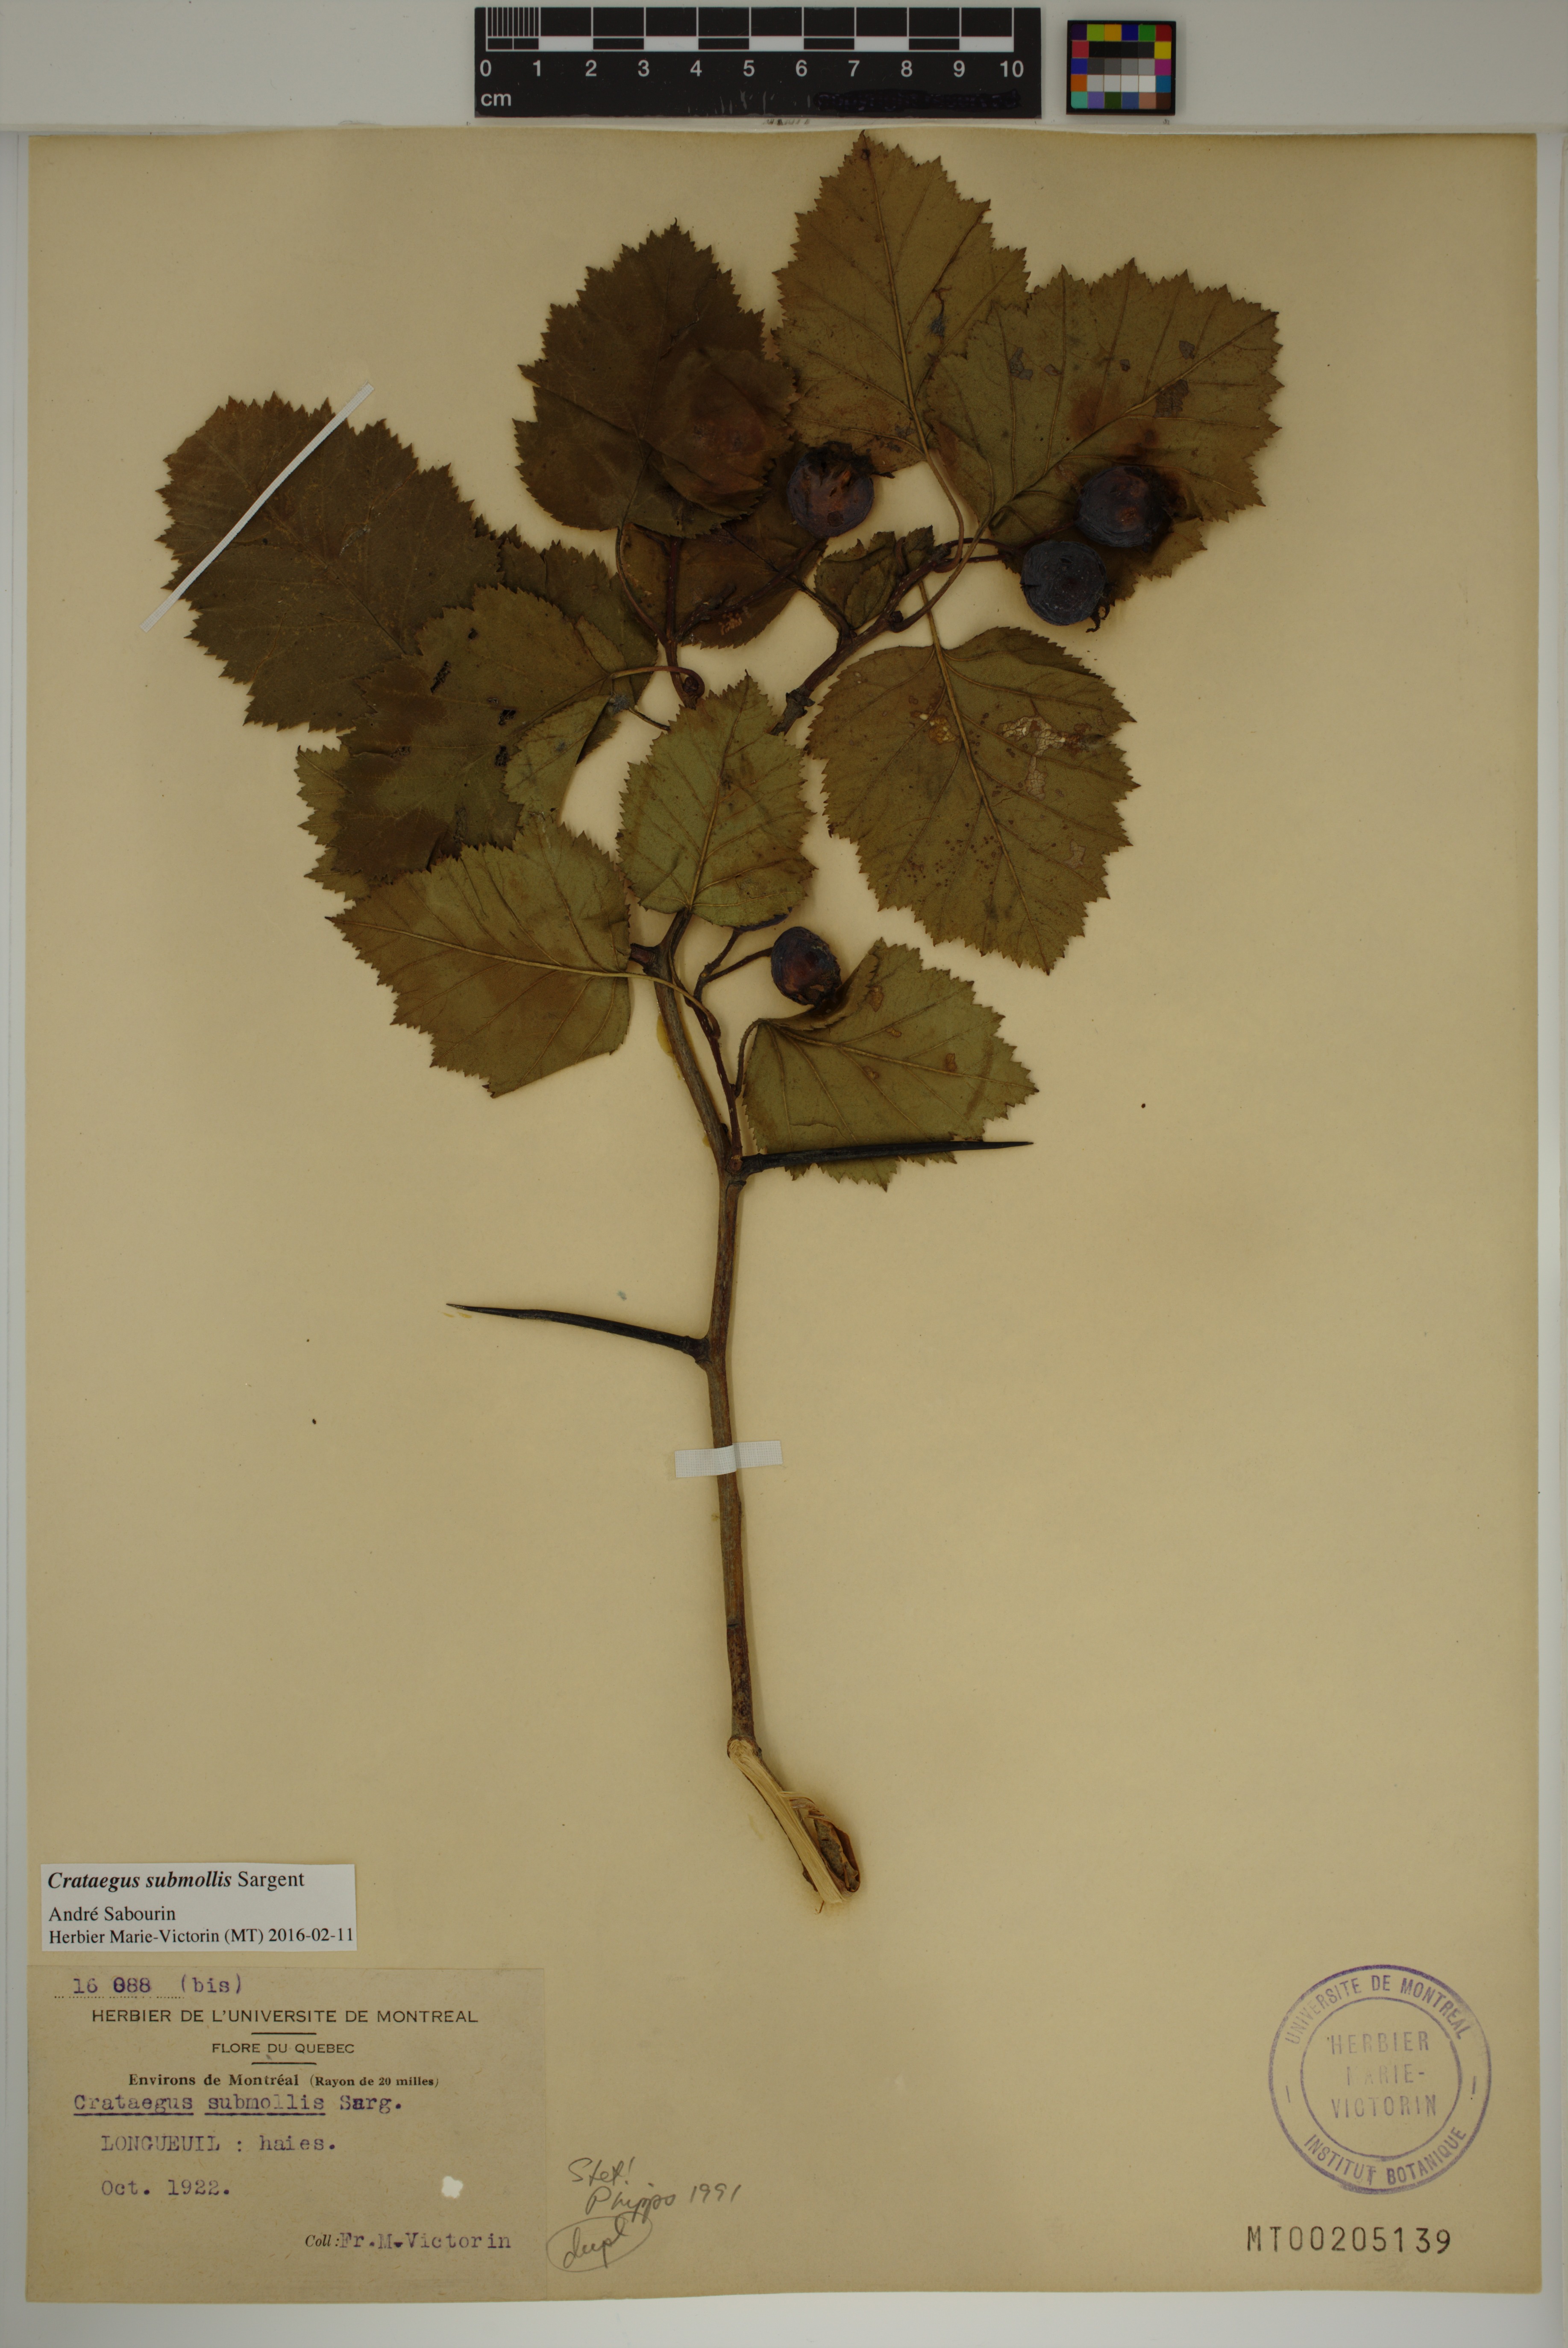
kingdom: Plantae
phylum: Tracheophyta
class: Magnoliopsida
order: Rosales
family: Rosaceae
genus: Crataegus
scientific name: Crataegus submollis
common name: Hairy cockspurthorn
